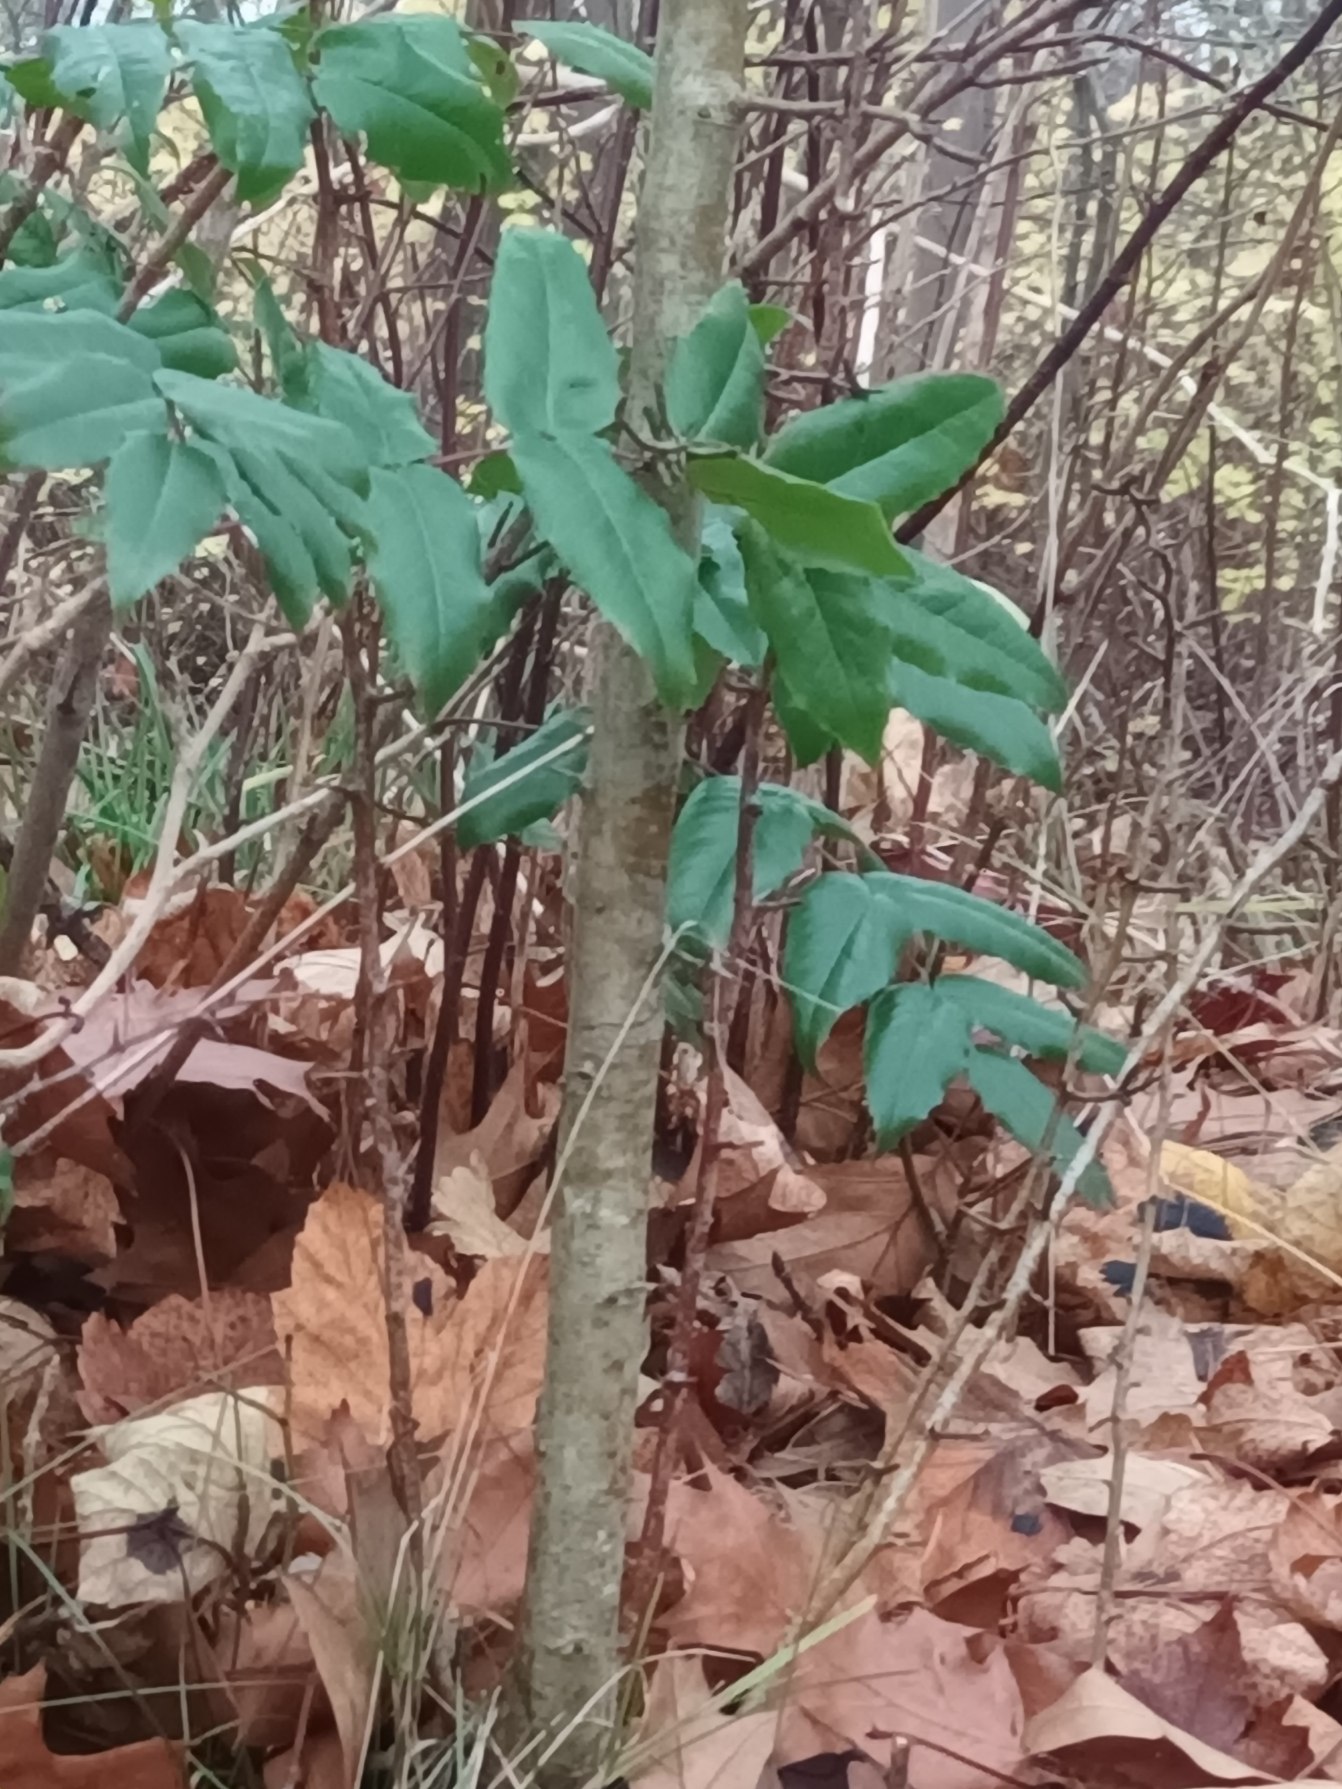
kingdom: Plantae
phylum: Tracheophyta
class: Magnoliopsida
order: Ranunculales
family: Berberidaceae
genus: Mahonia
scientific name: Mahonia aquifolium
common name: Almindelig mahonie
